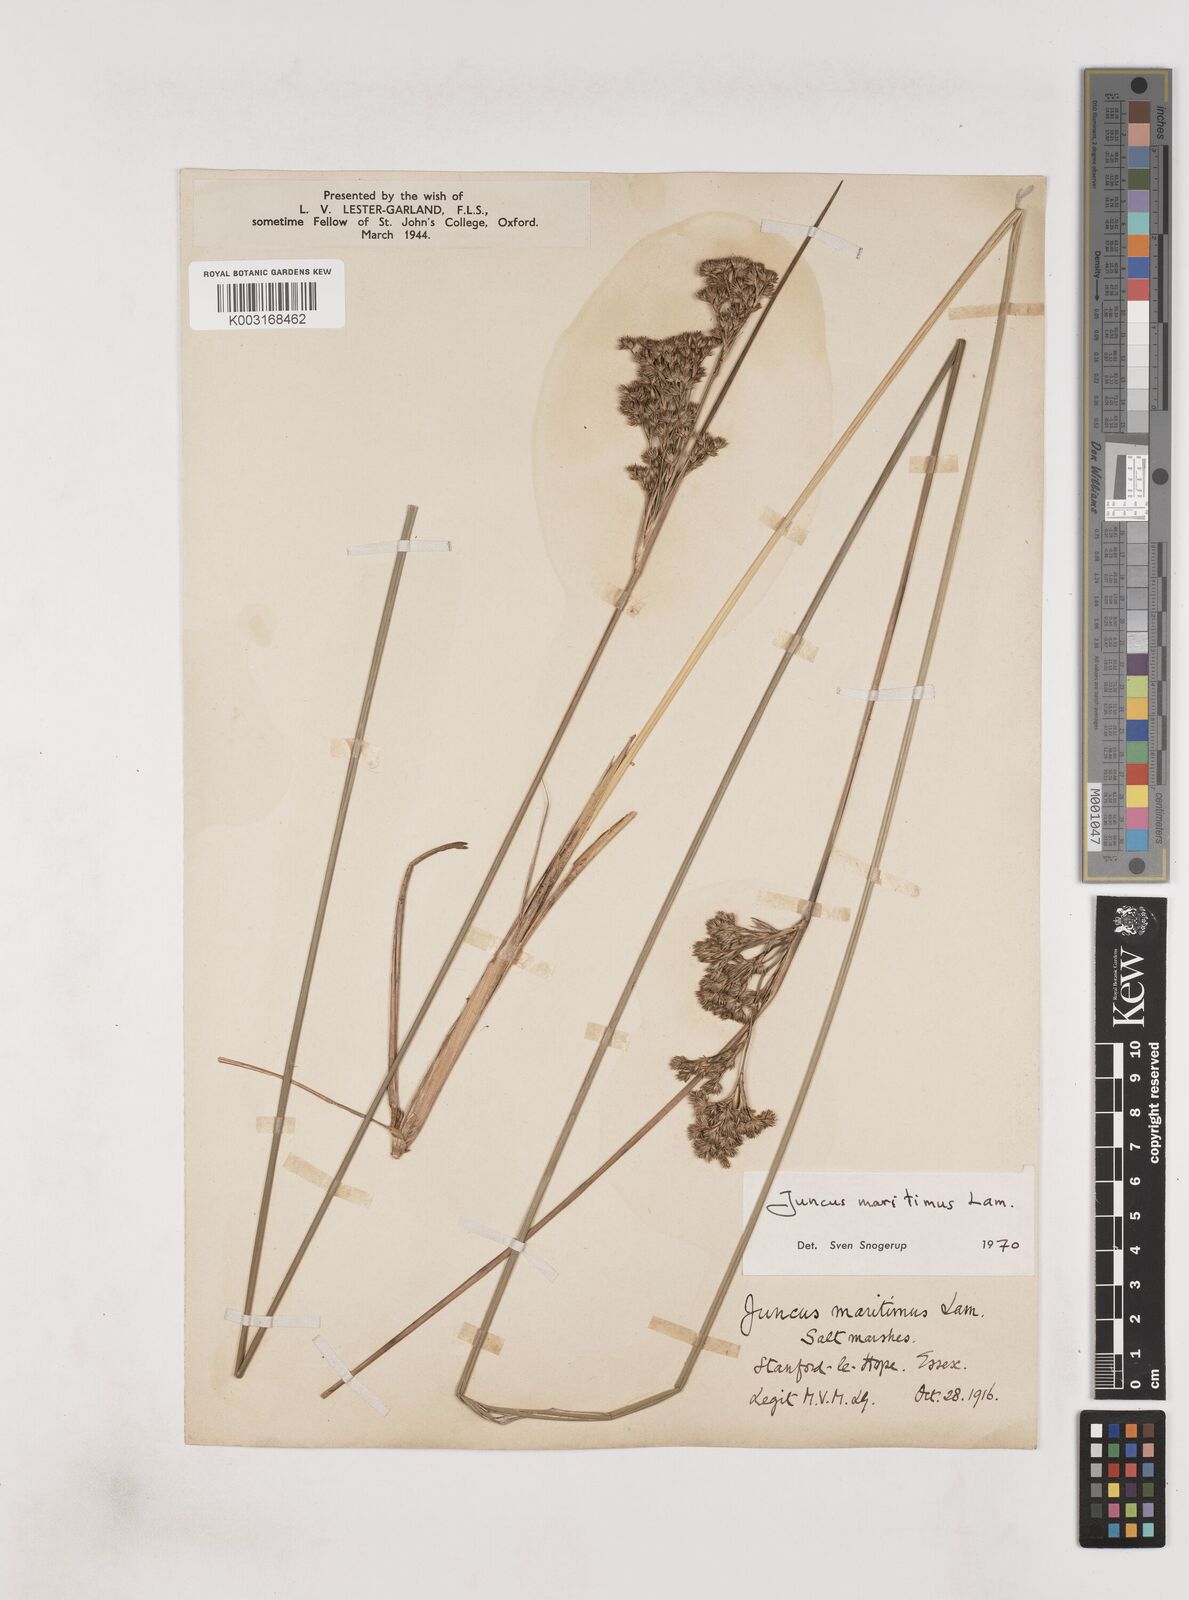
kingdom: Plantae
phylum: Tracheophyta
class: Liliopsida
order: Poales
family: Juncaceae
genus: Juncus
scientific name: Juncus maritimus
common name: Sea rush
